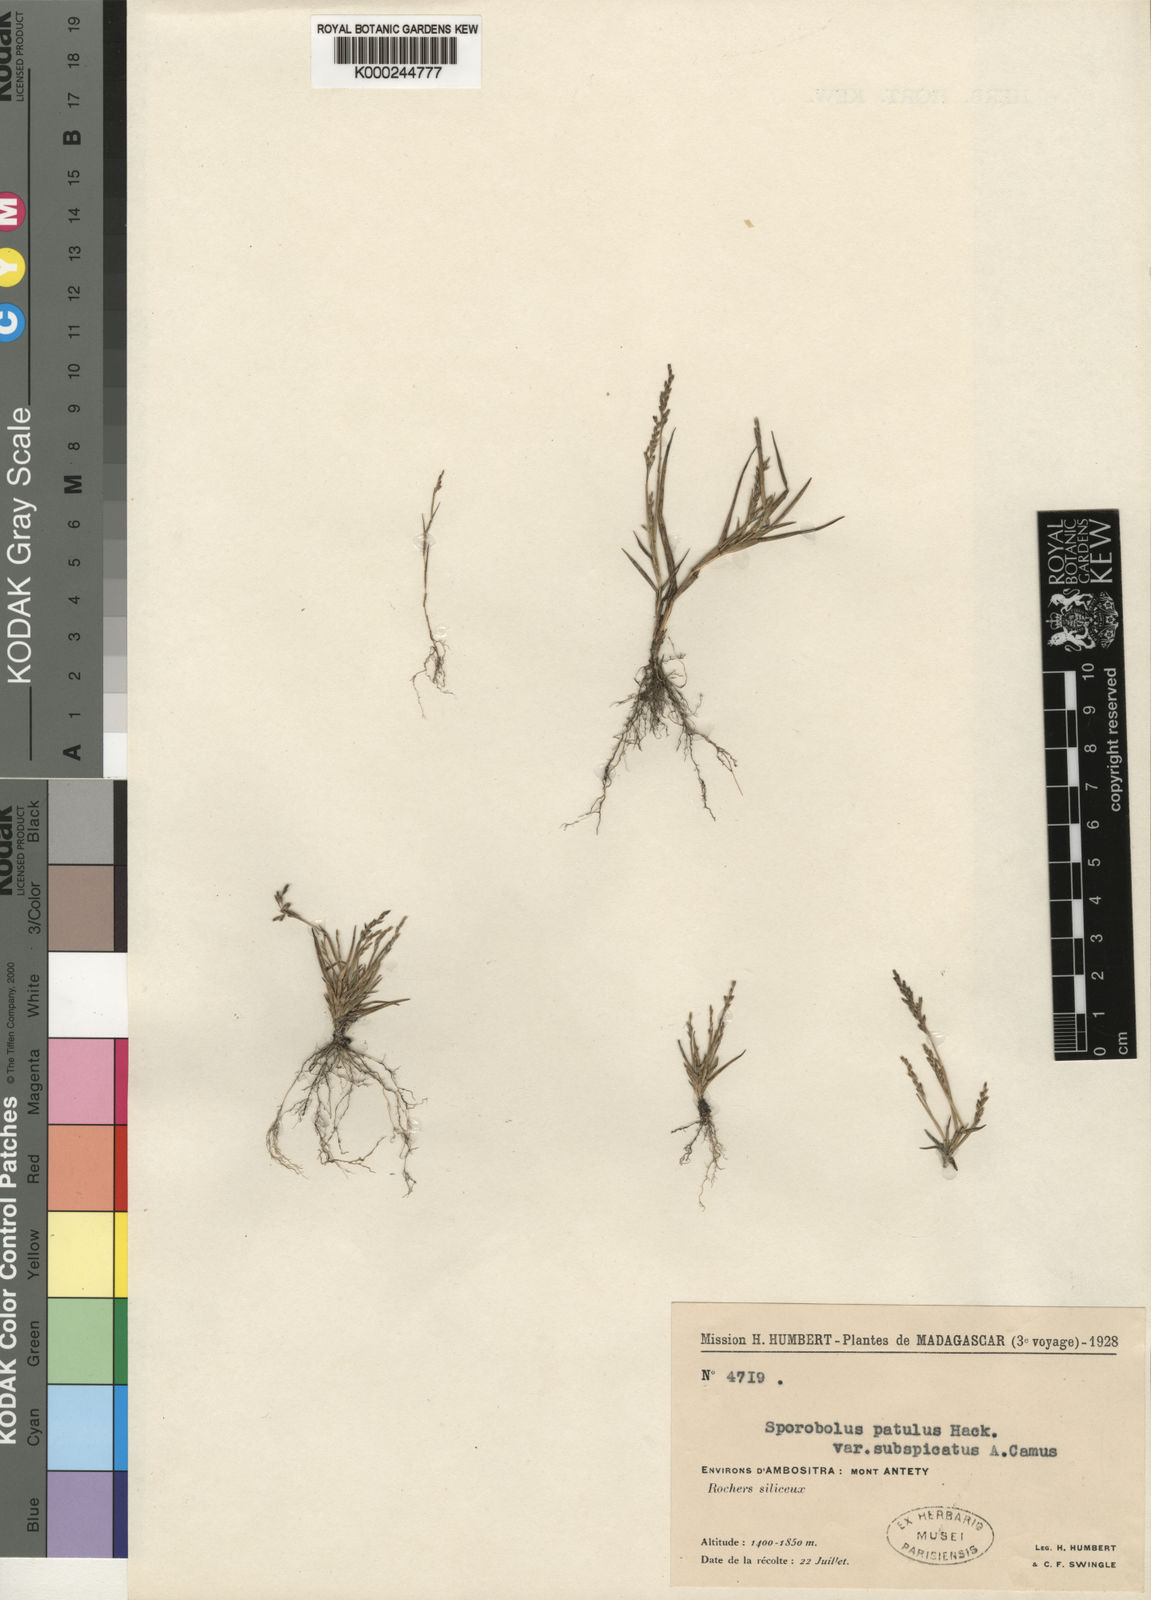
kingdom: Plantae
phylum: Tracheophyta
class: Liliopsida
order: Poales
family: Poaceae
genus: Sporobolus
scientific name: Sporobolus paniculatus
